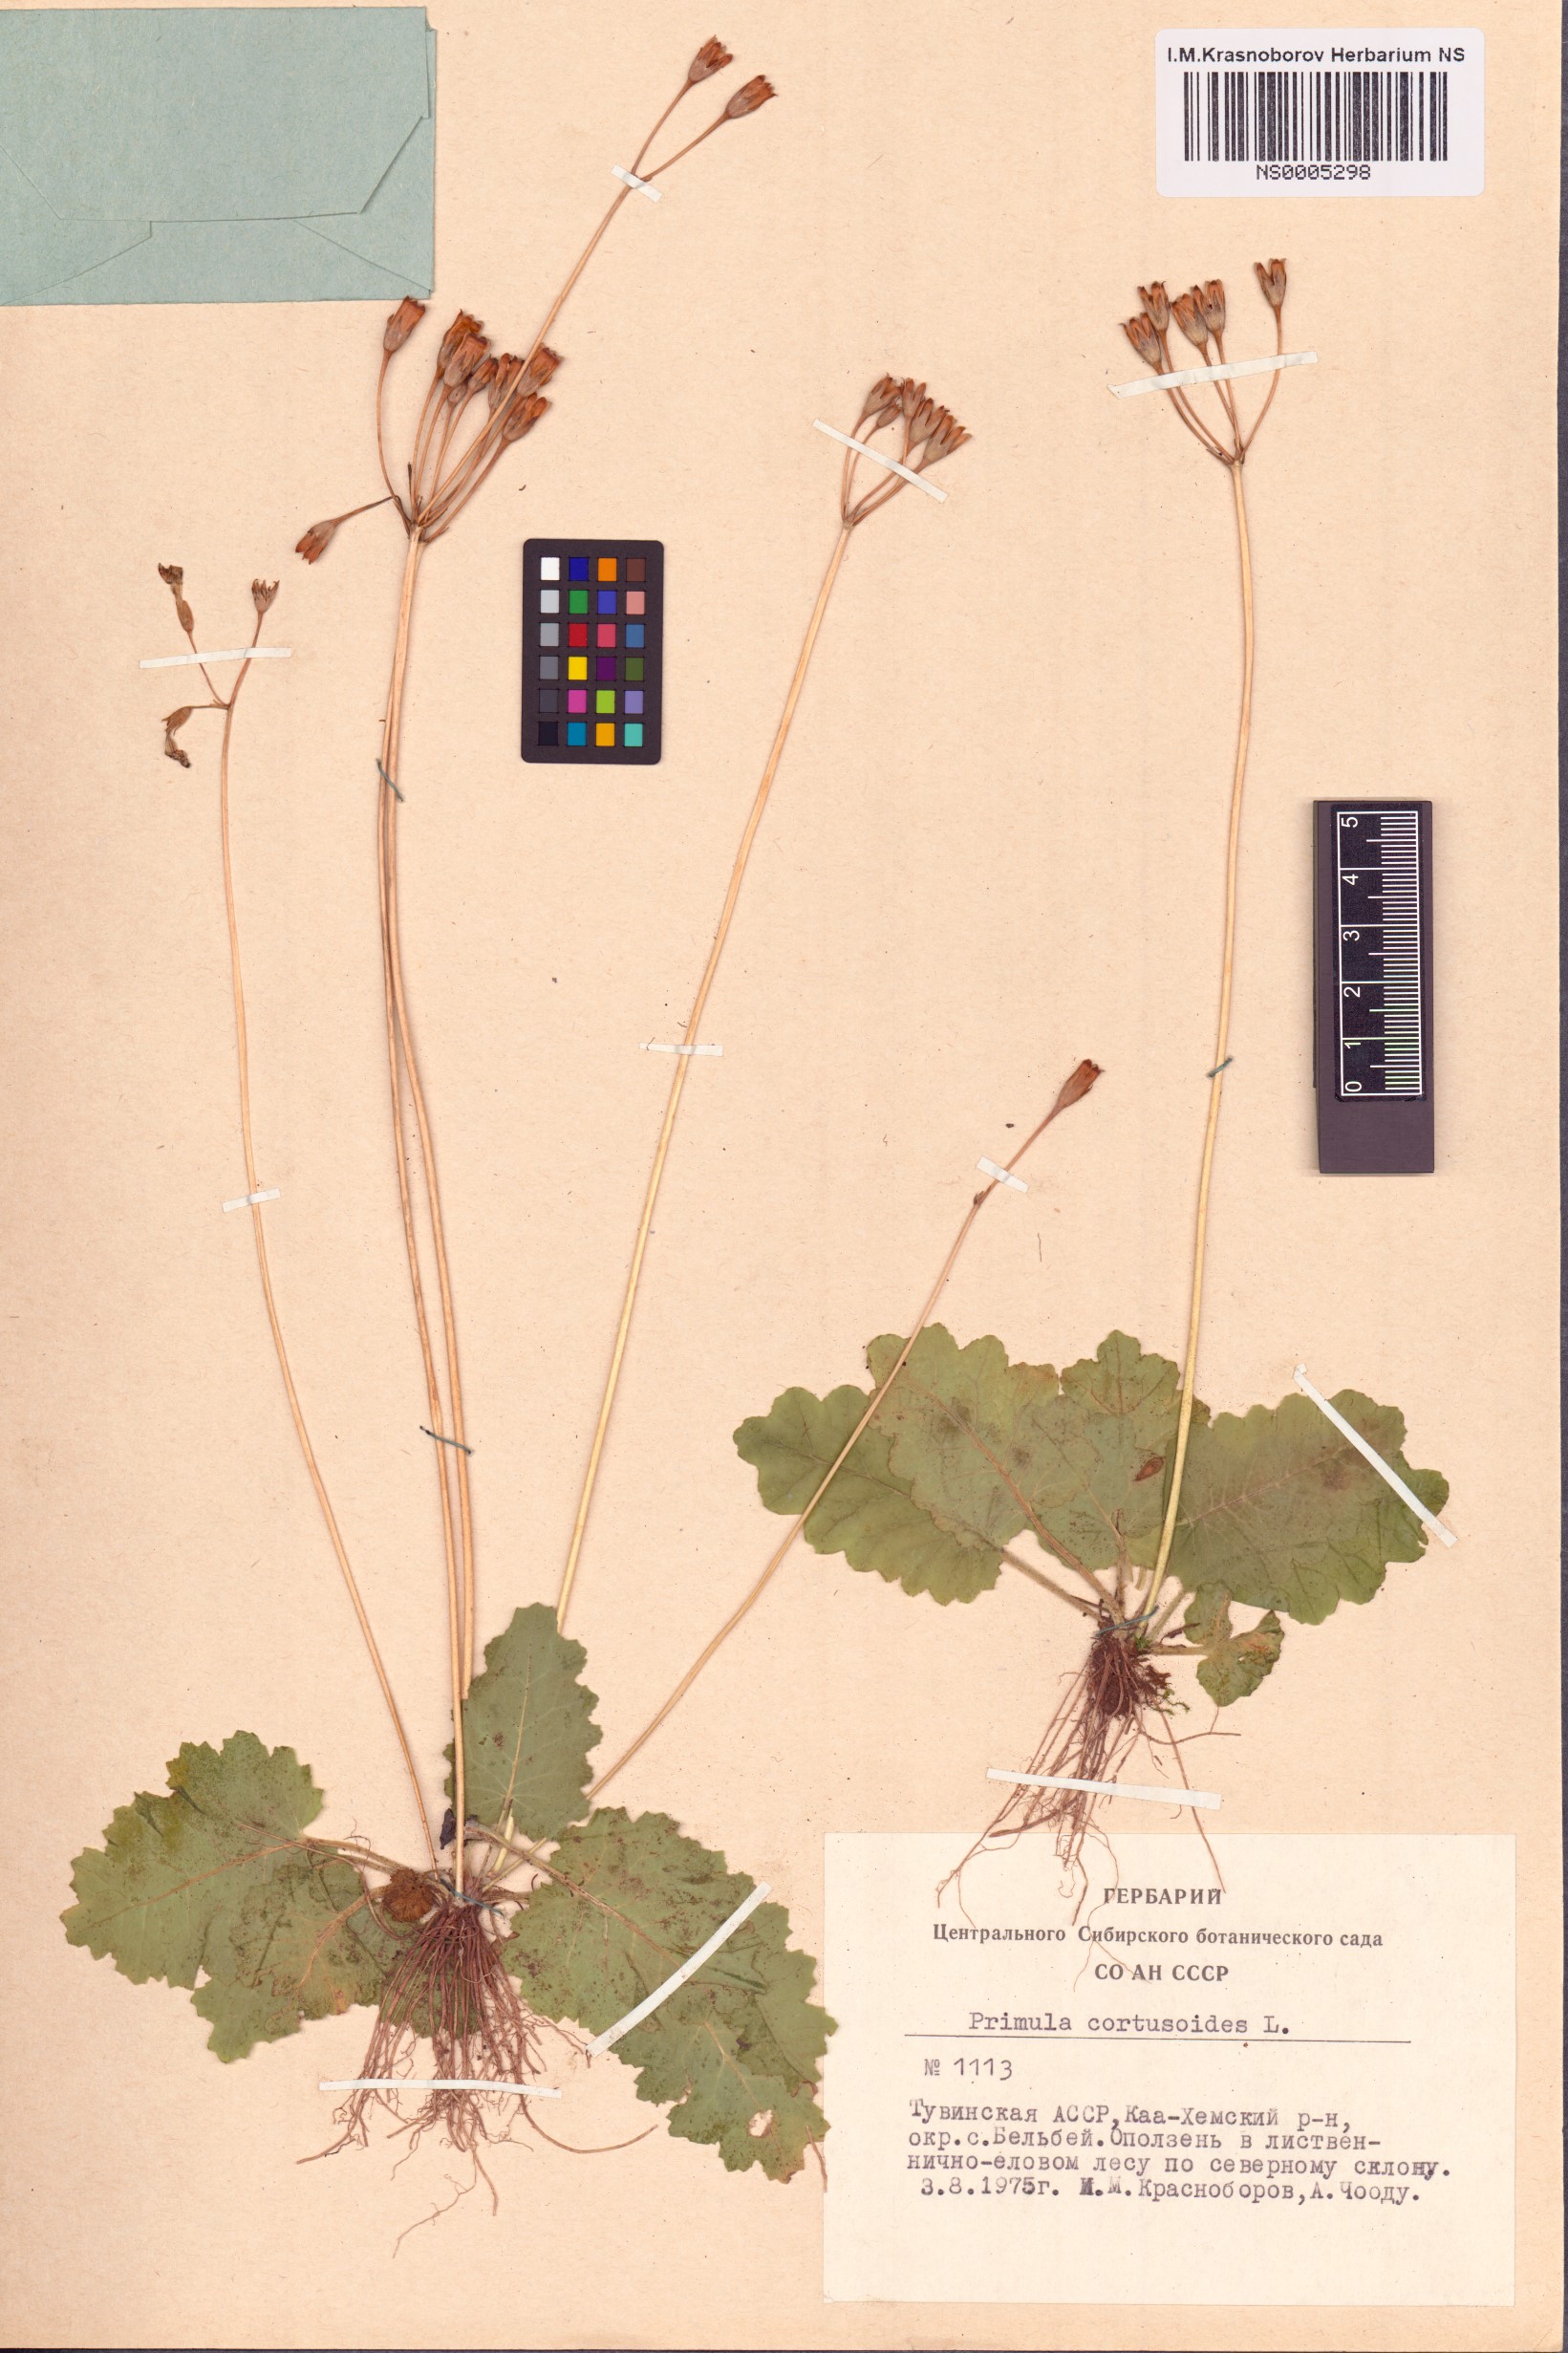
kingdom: Plantae
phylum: Tracheophyta
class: Magnoliopsida
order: Ericales
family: Primulaceae
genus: Primula
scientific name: Primula cortusoides
